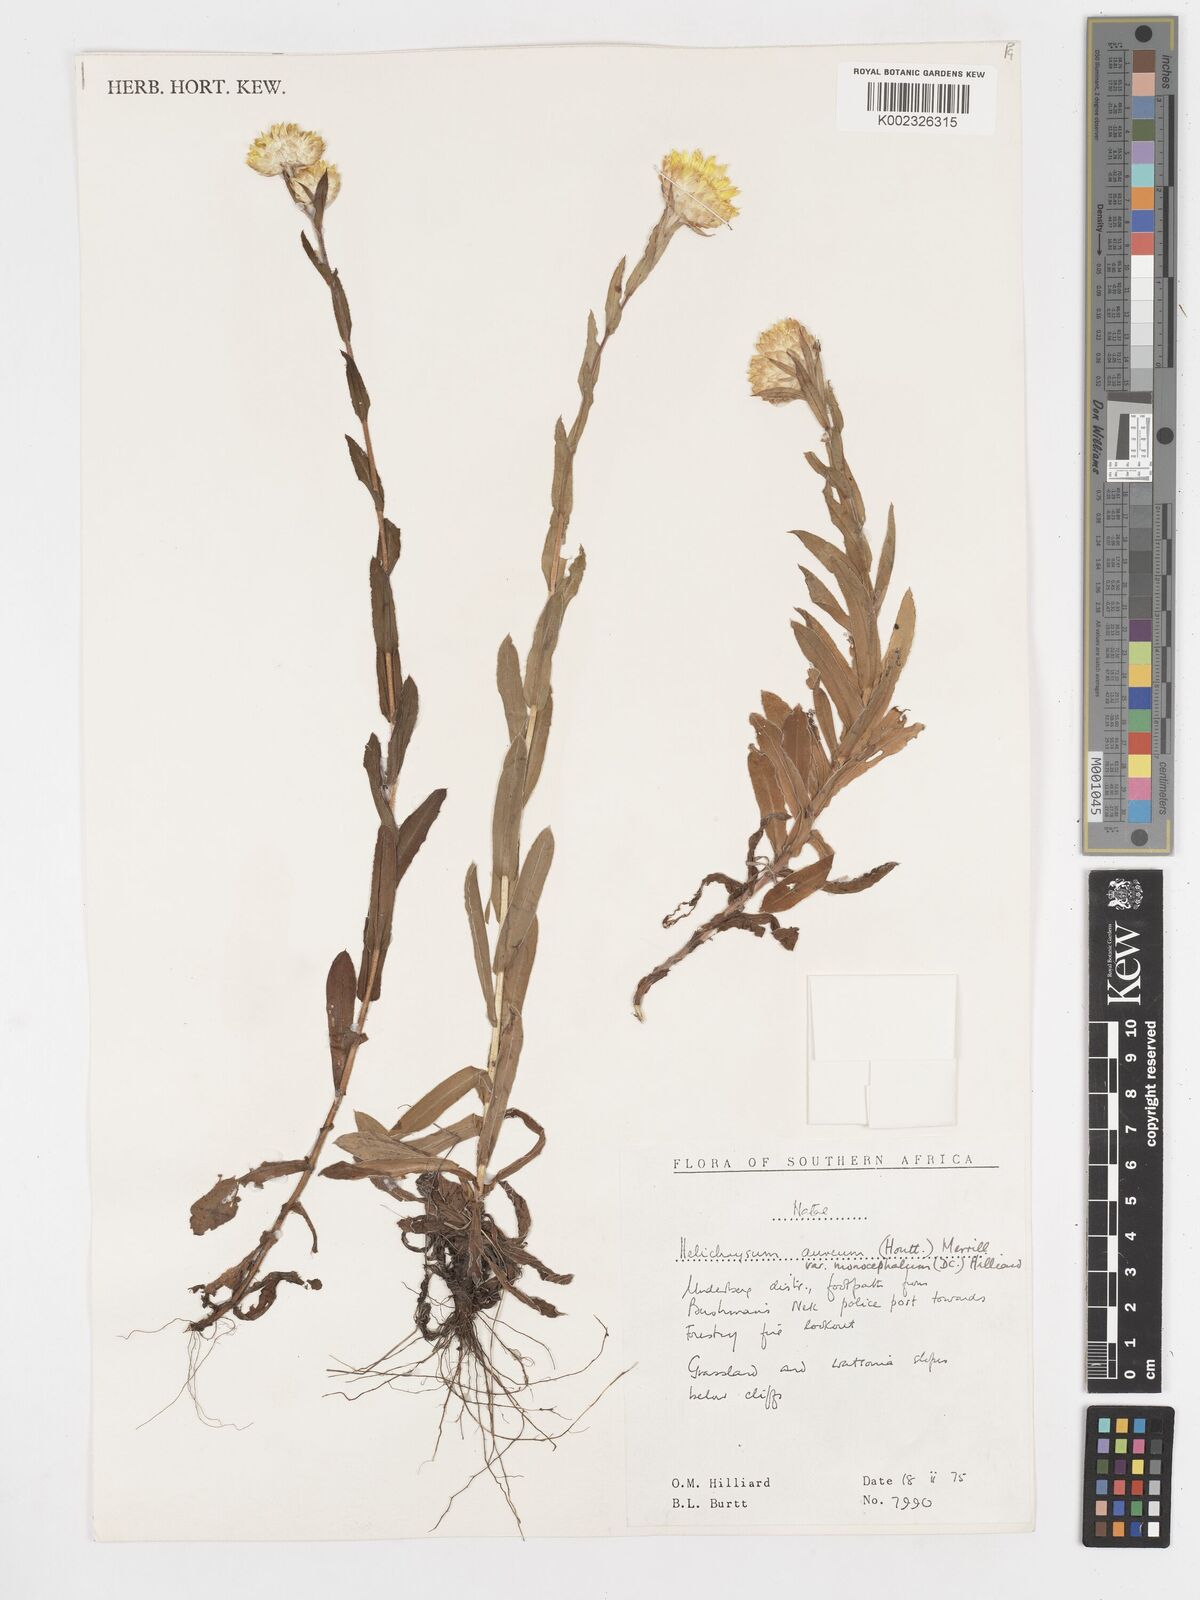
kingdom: Plantae
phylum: Tracheophyta
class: Magnoliopsida
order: Asterales
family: Asteraceae
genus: Helichrysum
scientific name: Helichrysum aureum
